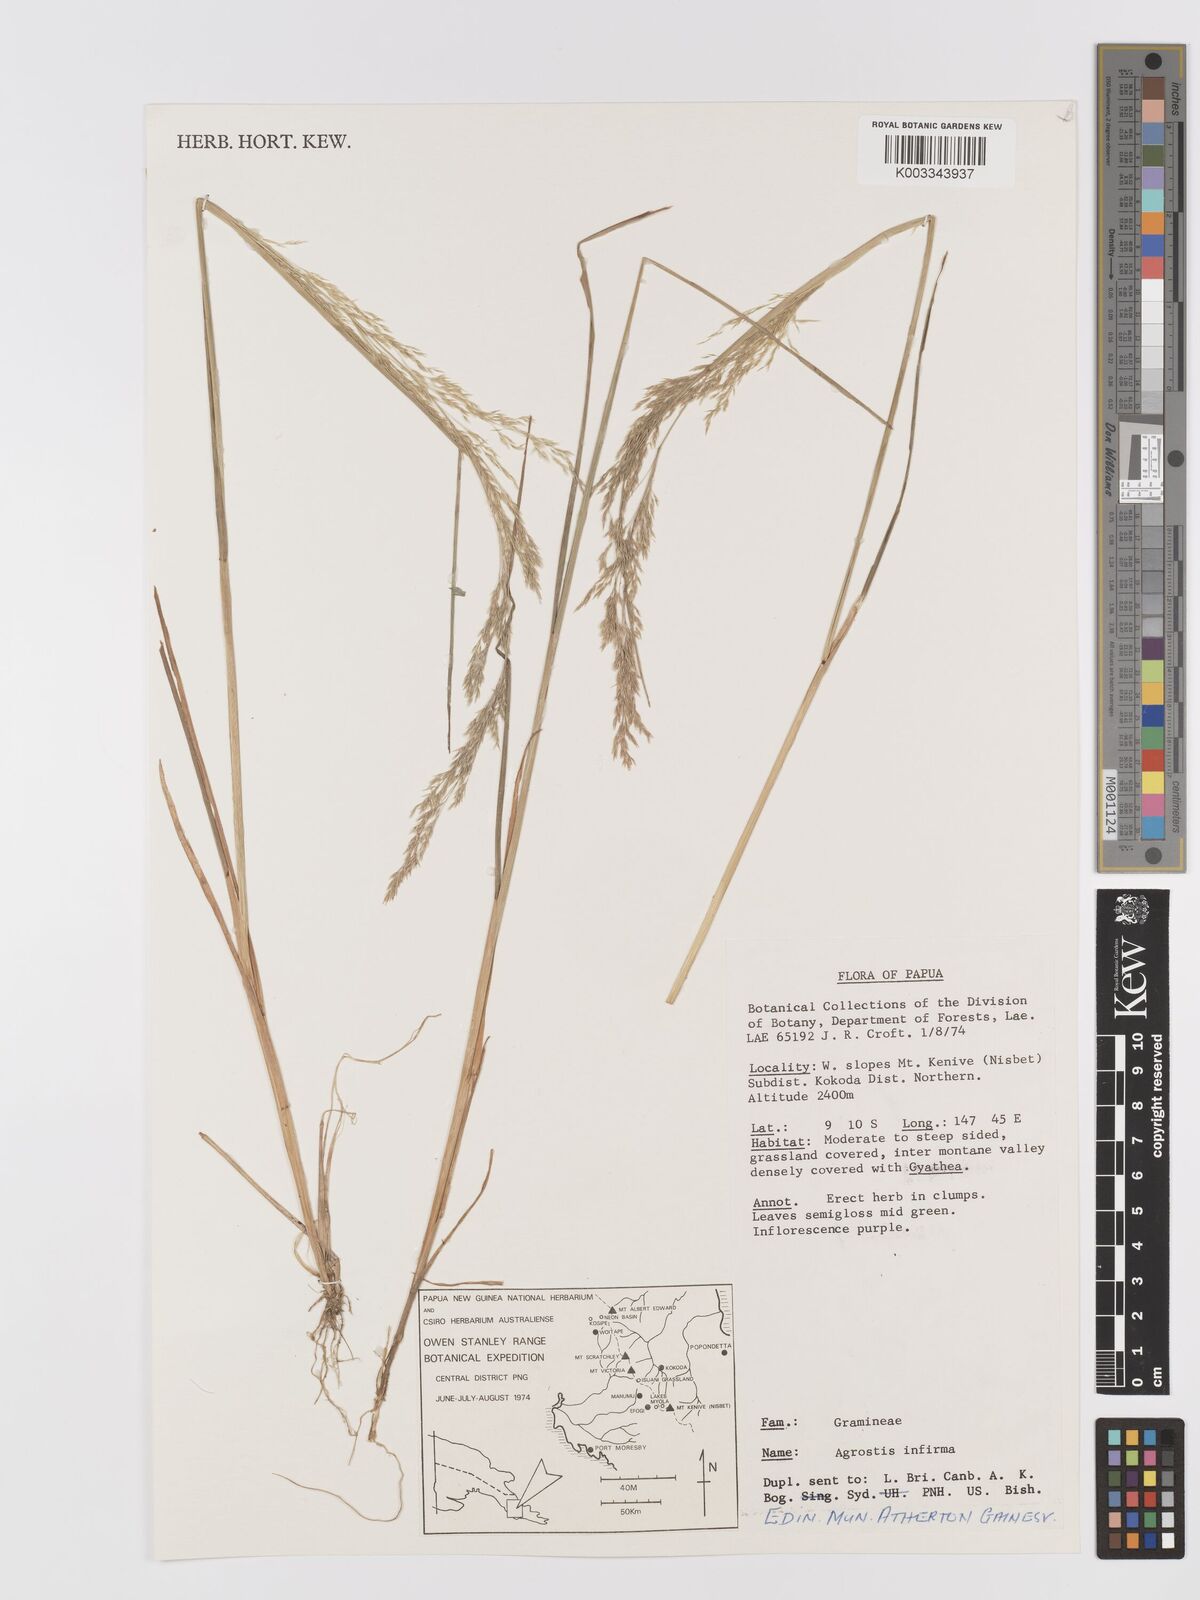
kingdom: Plantae
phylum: Tracheophyta
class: Liliopsida
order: Poales
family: Poaceae
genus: Agrostis
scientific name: Agrostis infirma
